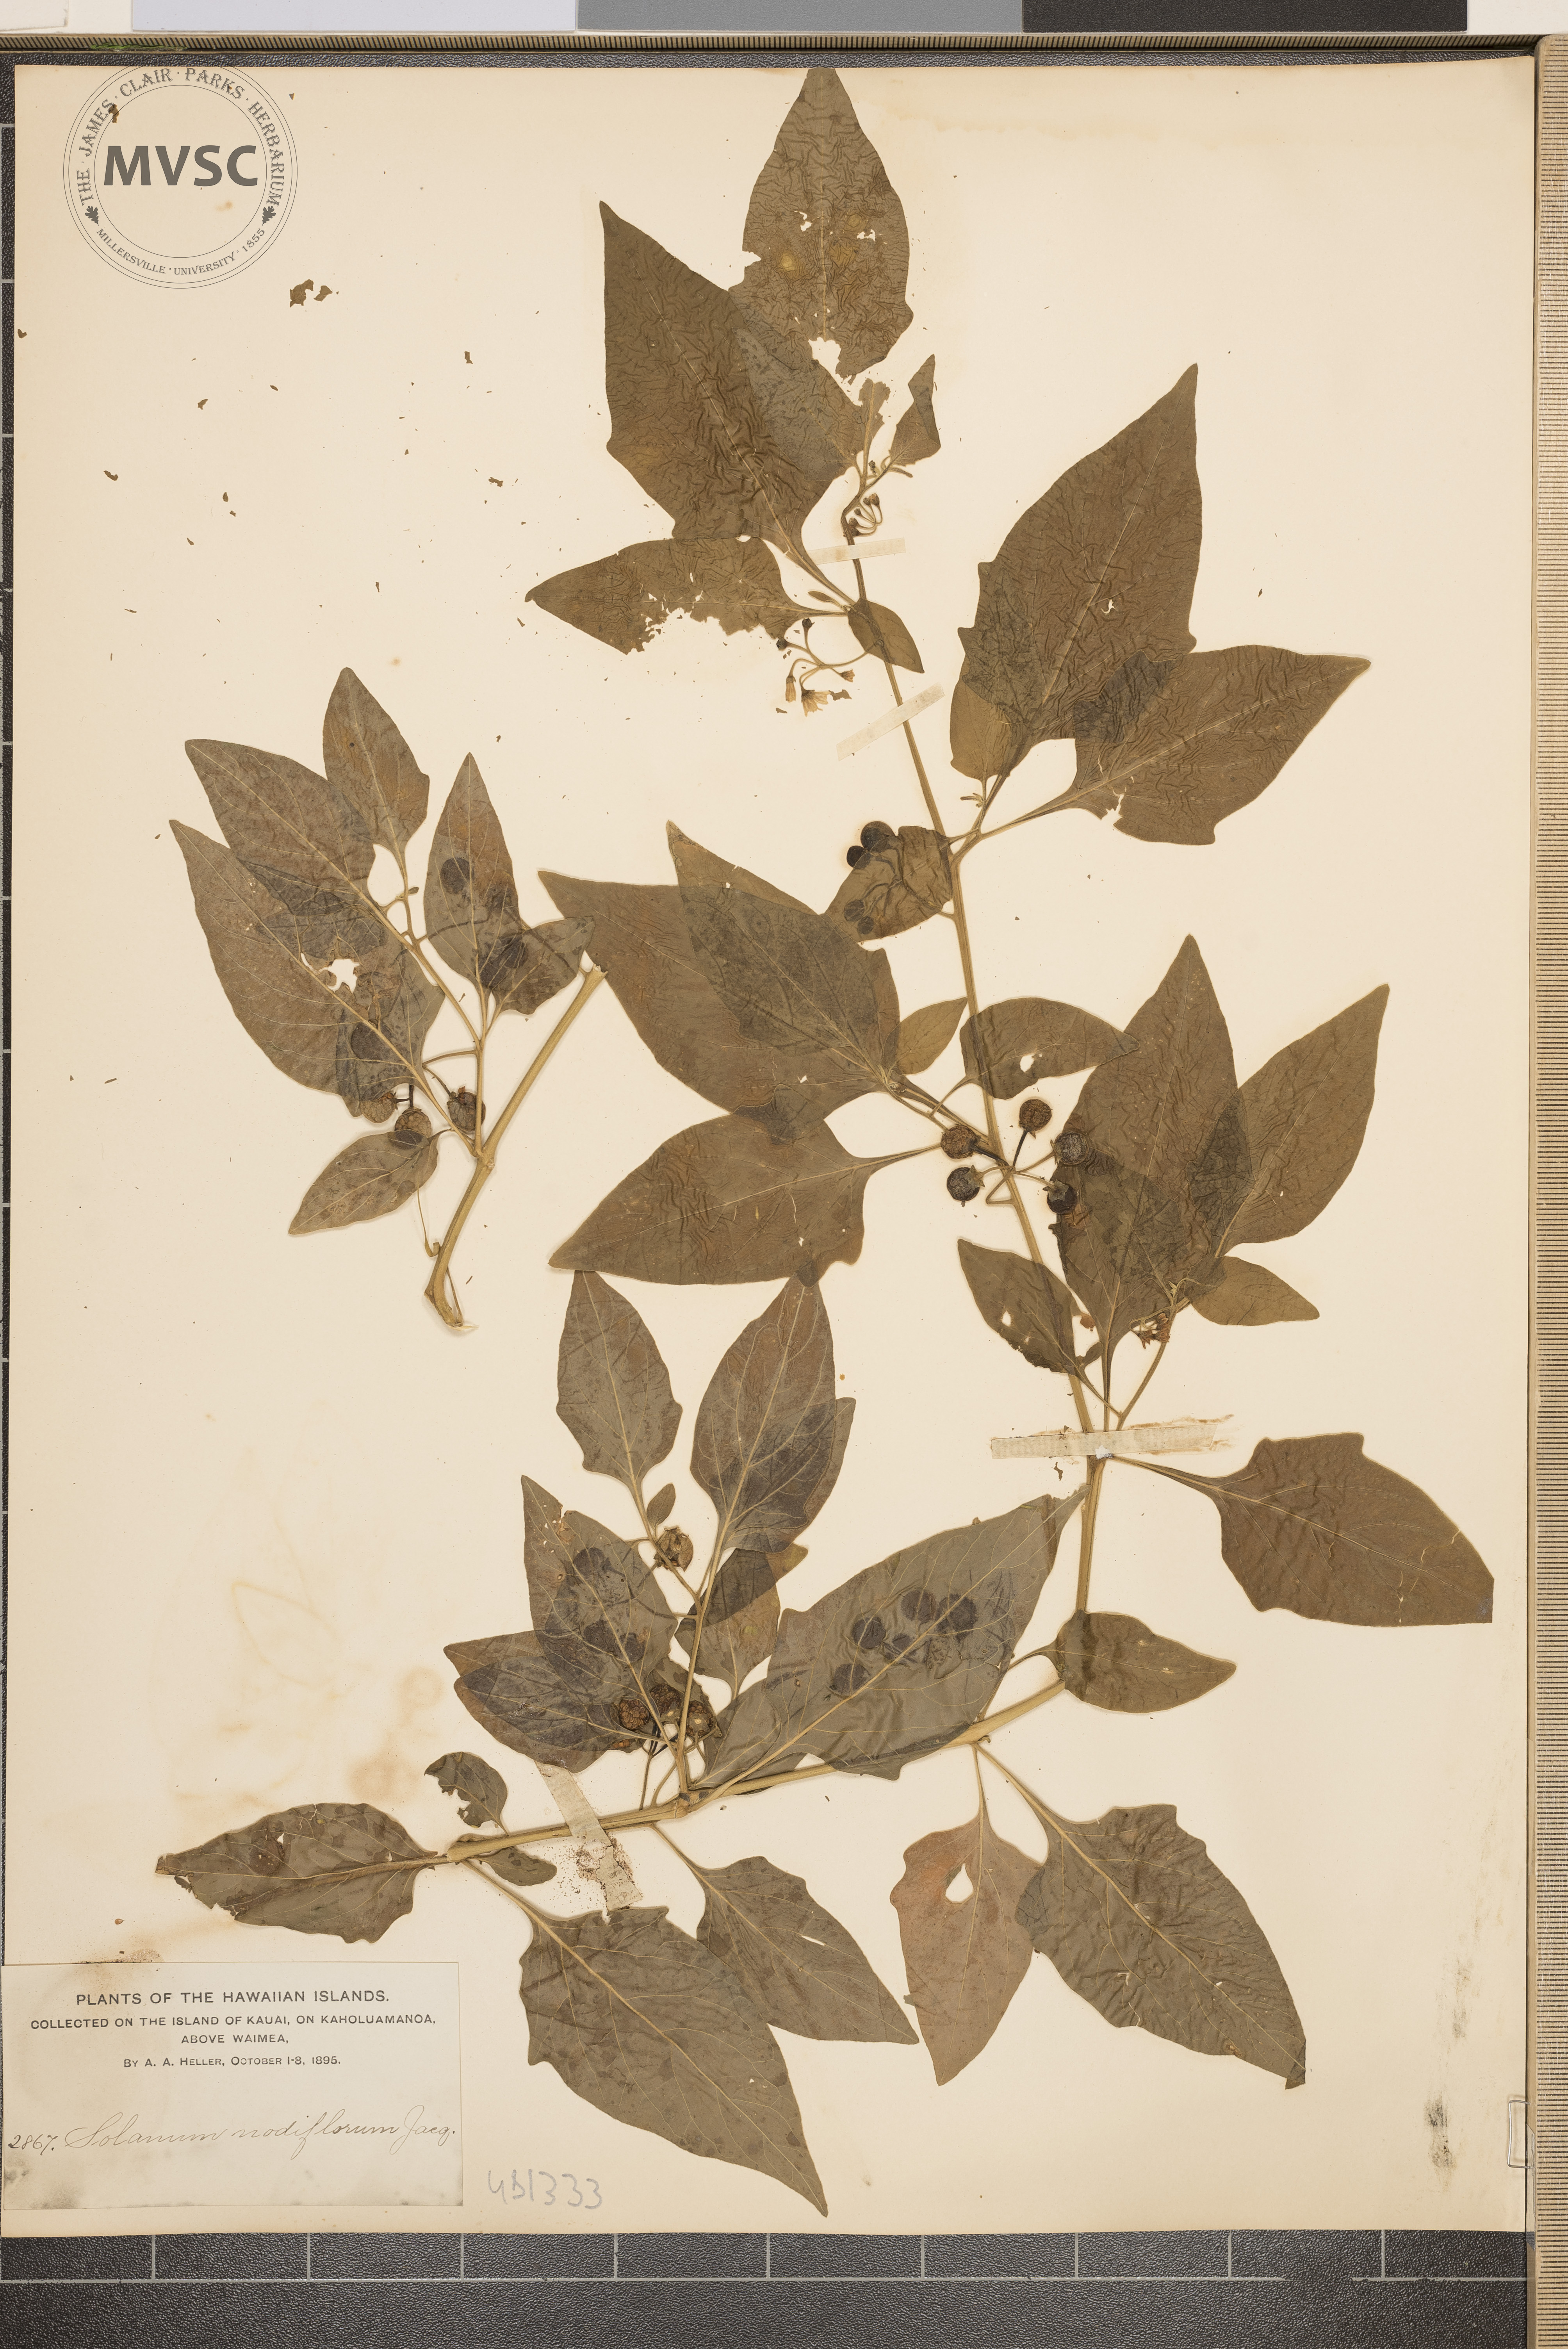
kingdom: Plantae
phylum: Tracheophyta
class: Magnoliopsida
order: Solanales
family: Solanaceae
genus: Solanum
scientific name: Solanum americanum
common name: nightshade
